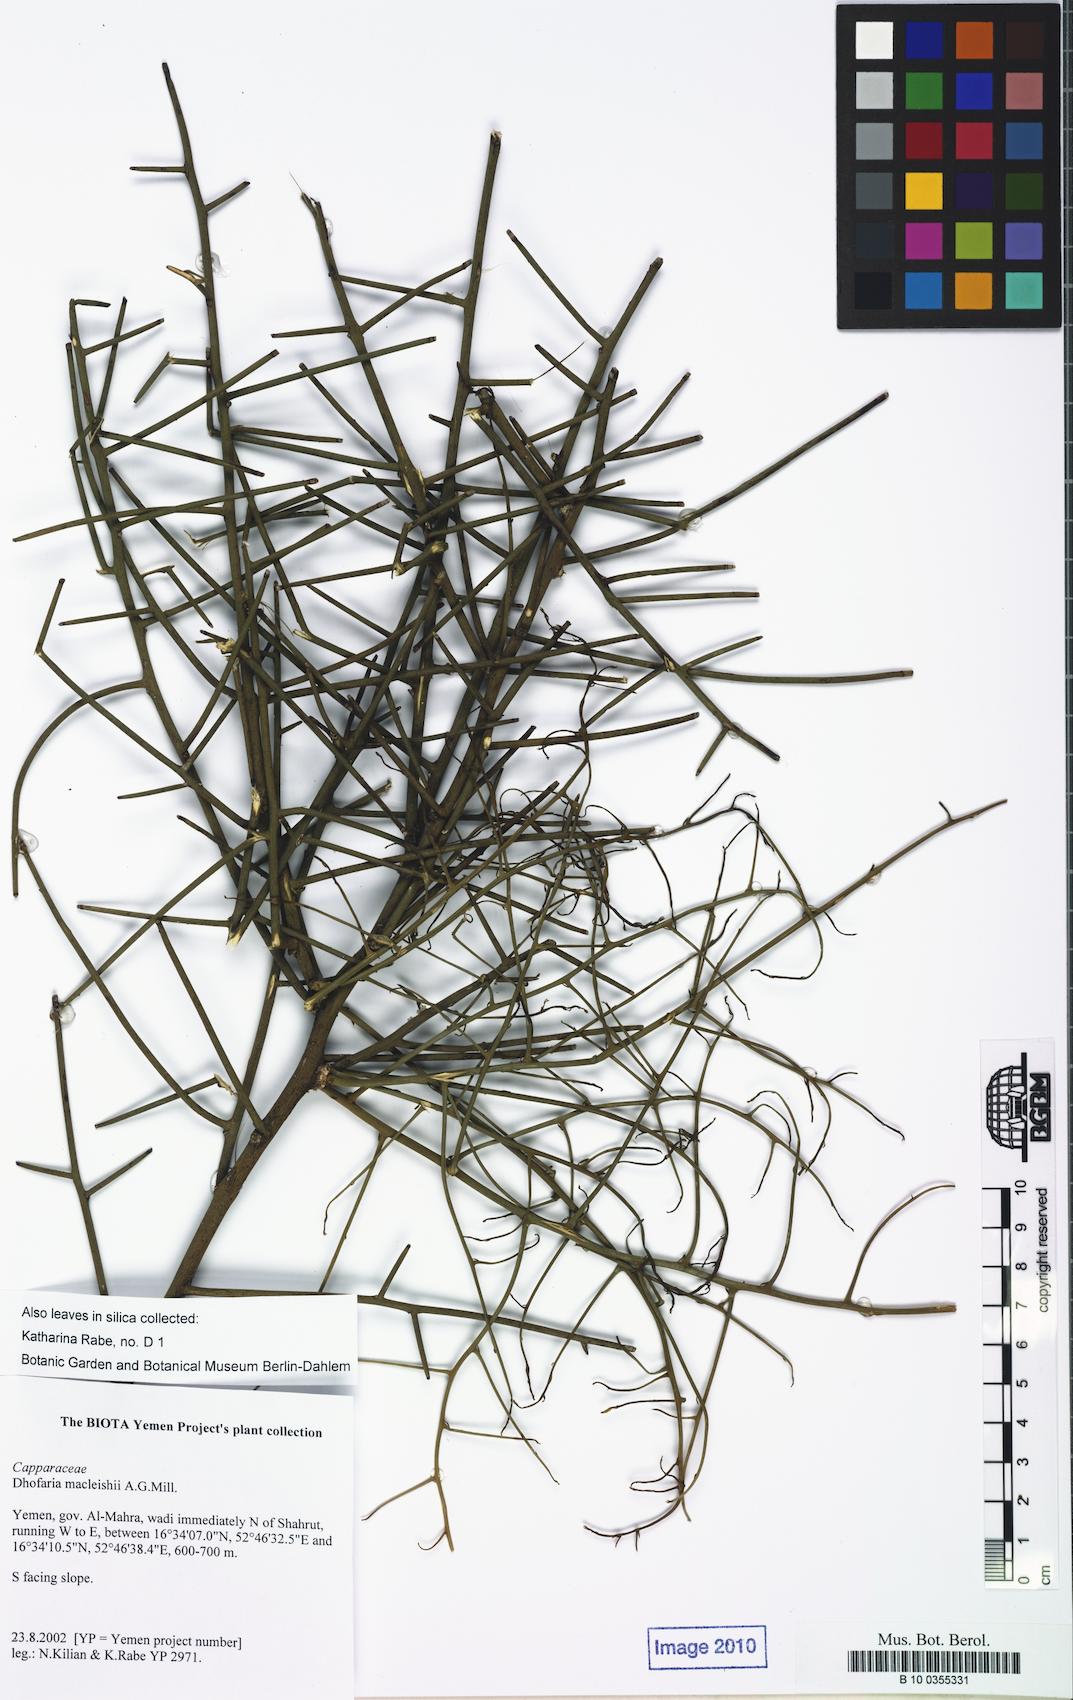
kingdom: Plantae
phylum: Tracheophyta
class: Magnoliopsida
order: Brassicales
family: Capparaceae
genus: Dhofaria
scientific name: Dhofaria macleishii
